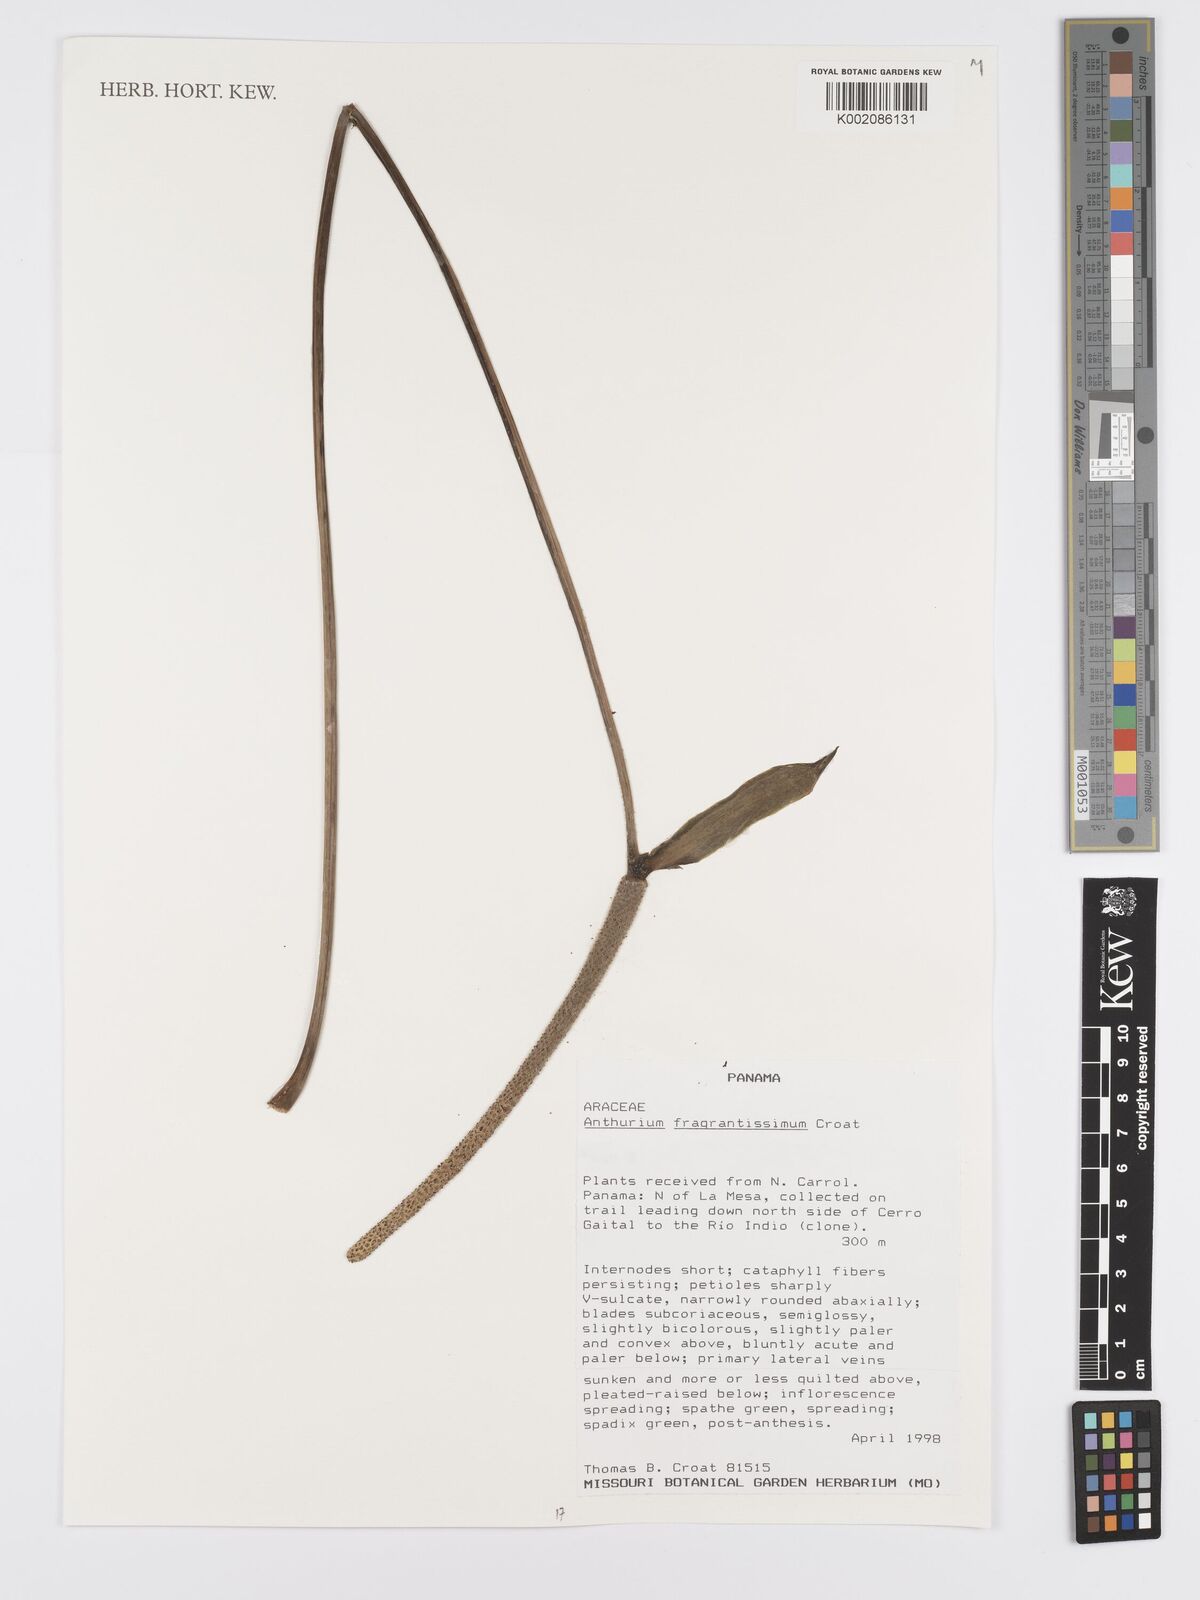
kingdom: Plantae
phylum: Tracheophyta
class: Liliopsida
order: Alismatales
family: Araceae
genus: Anthurium
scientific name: Anthurium fragrantissimum
